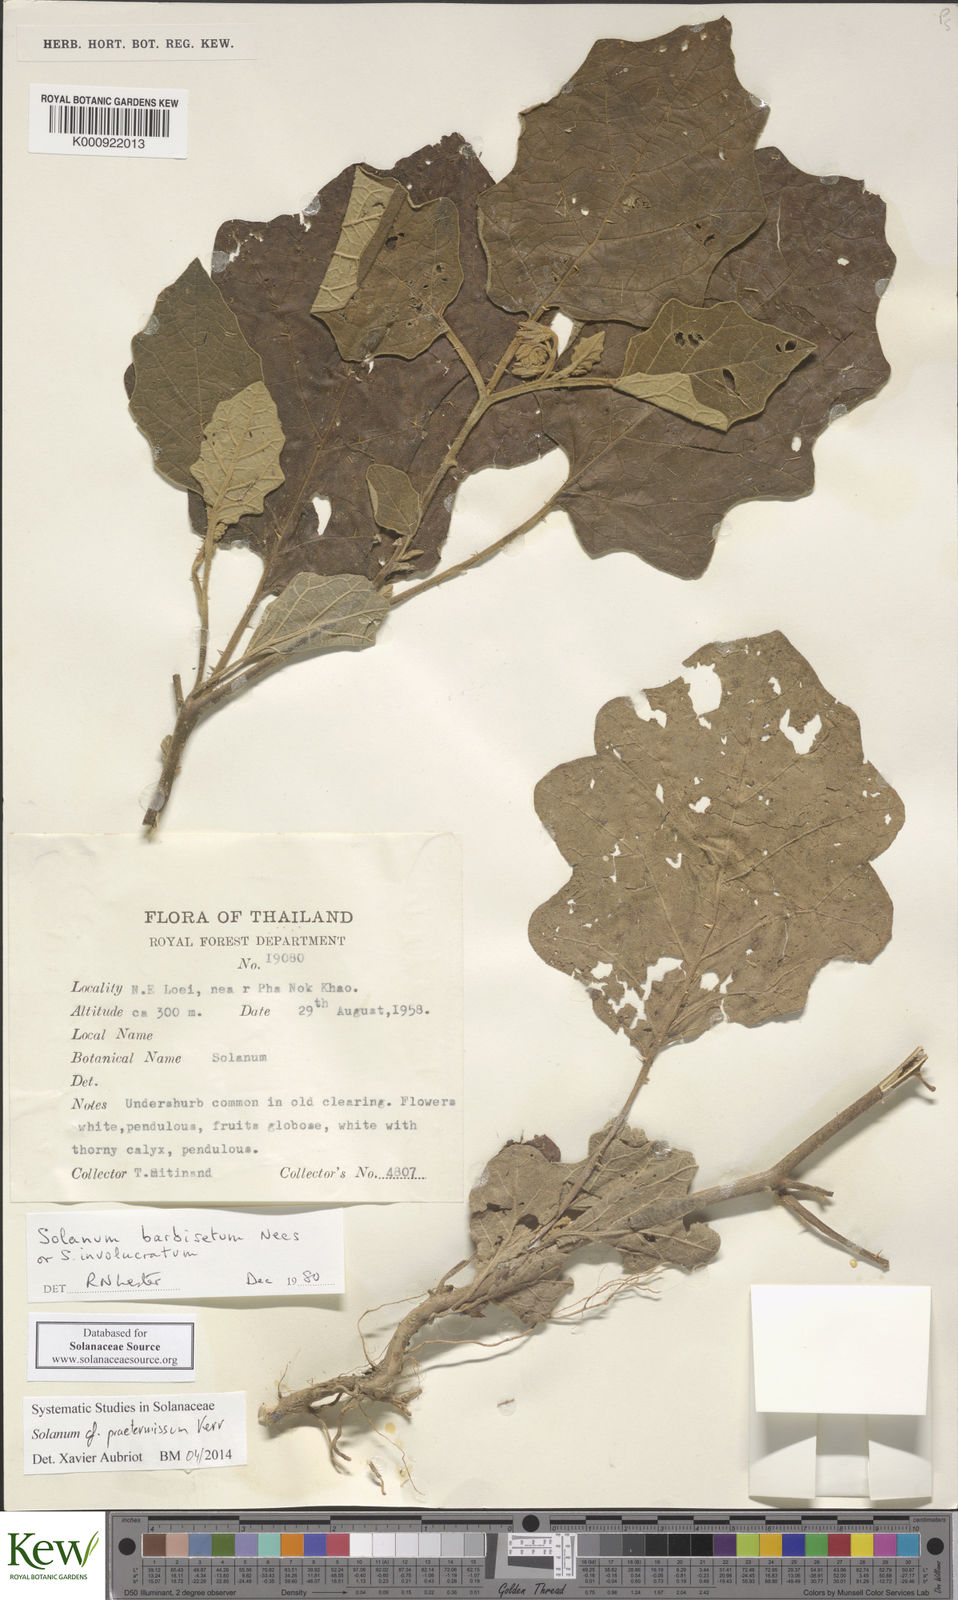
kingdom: Plantae
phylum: Tracheophyta
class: Magnoliopsida
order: Solanales
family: Solanaceae
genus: Solanum
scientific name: Solanum praetermissum
